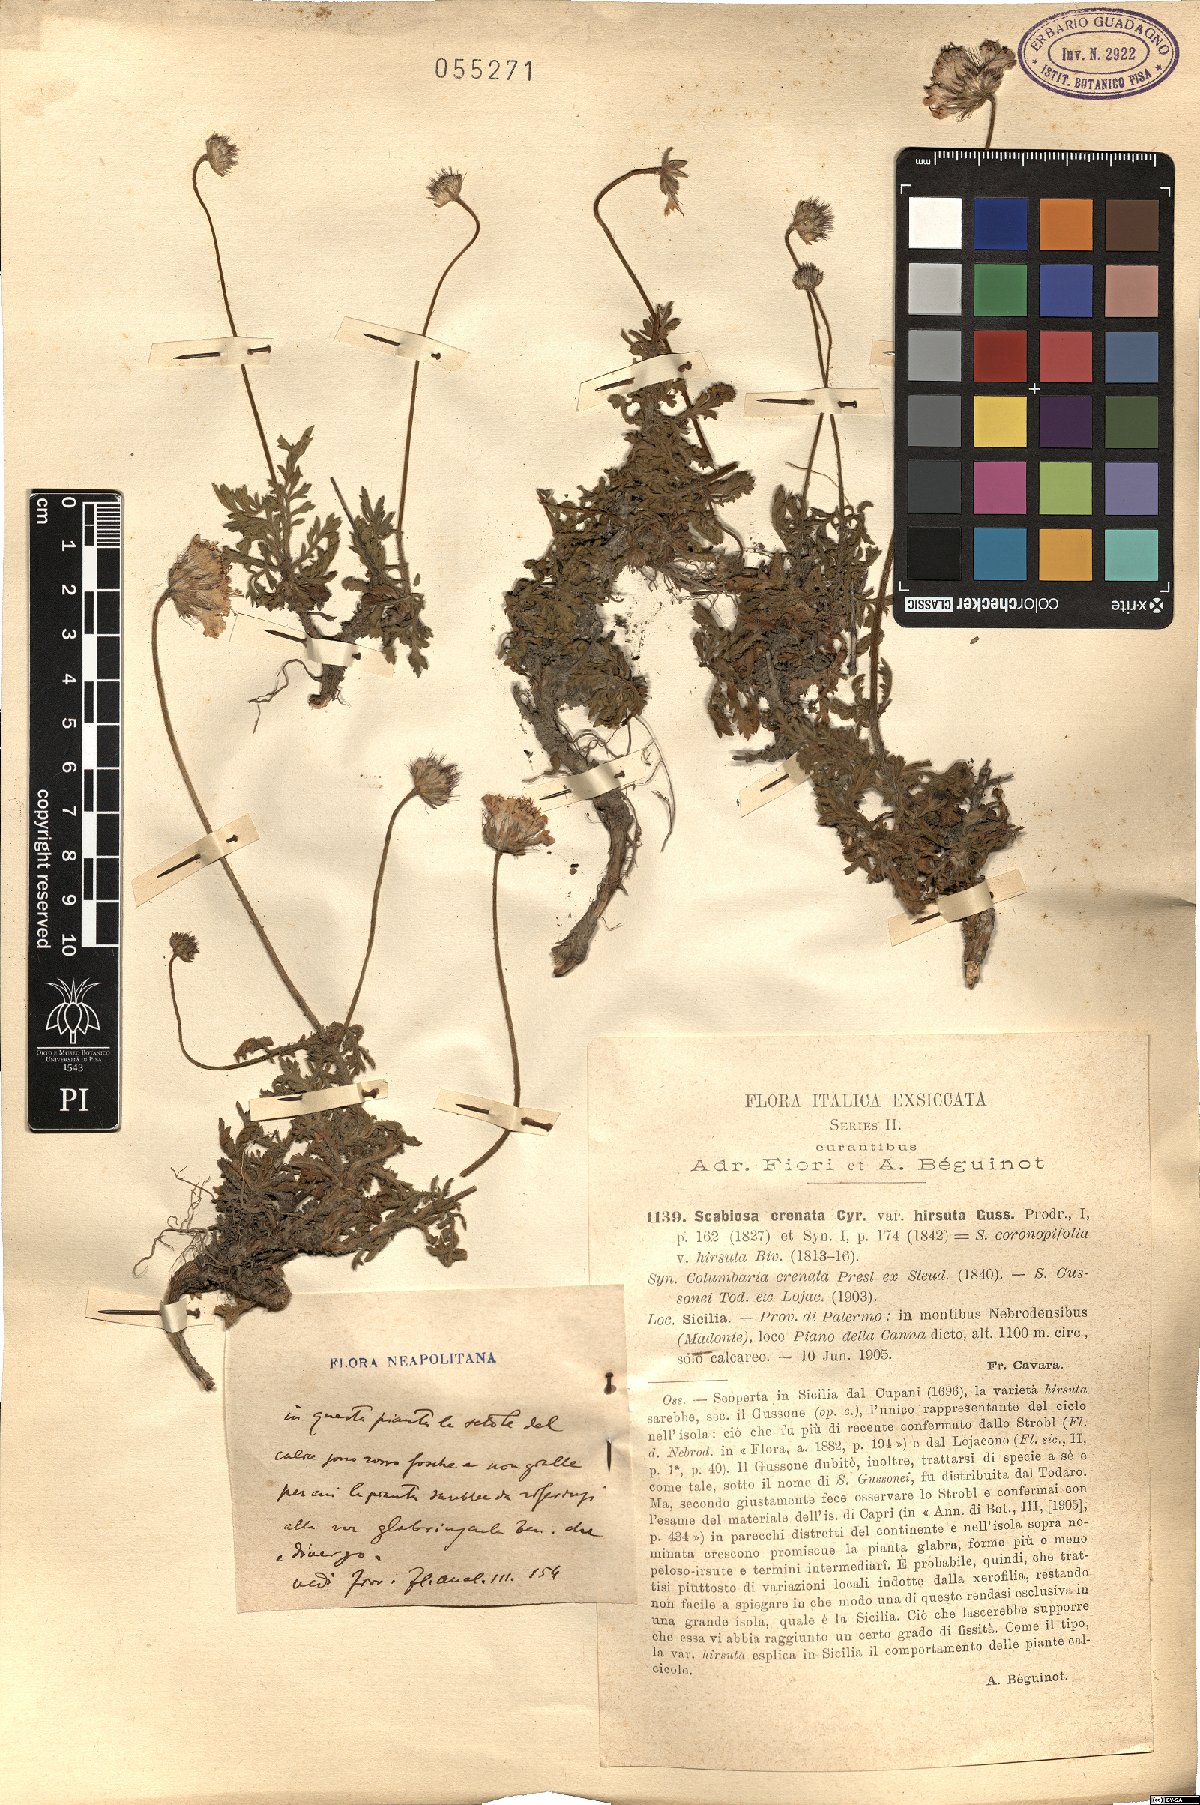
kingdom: Plantae
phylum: Tracheophyta
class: Magnoliopsida
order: Dipsacales
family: Caprifoliaceae
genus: Lomelosia
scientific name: Lomelosia crenata
